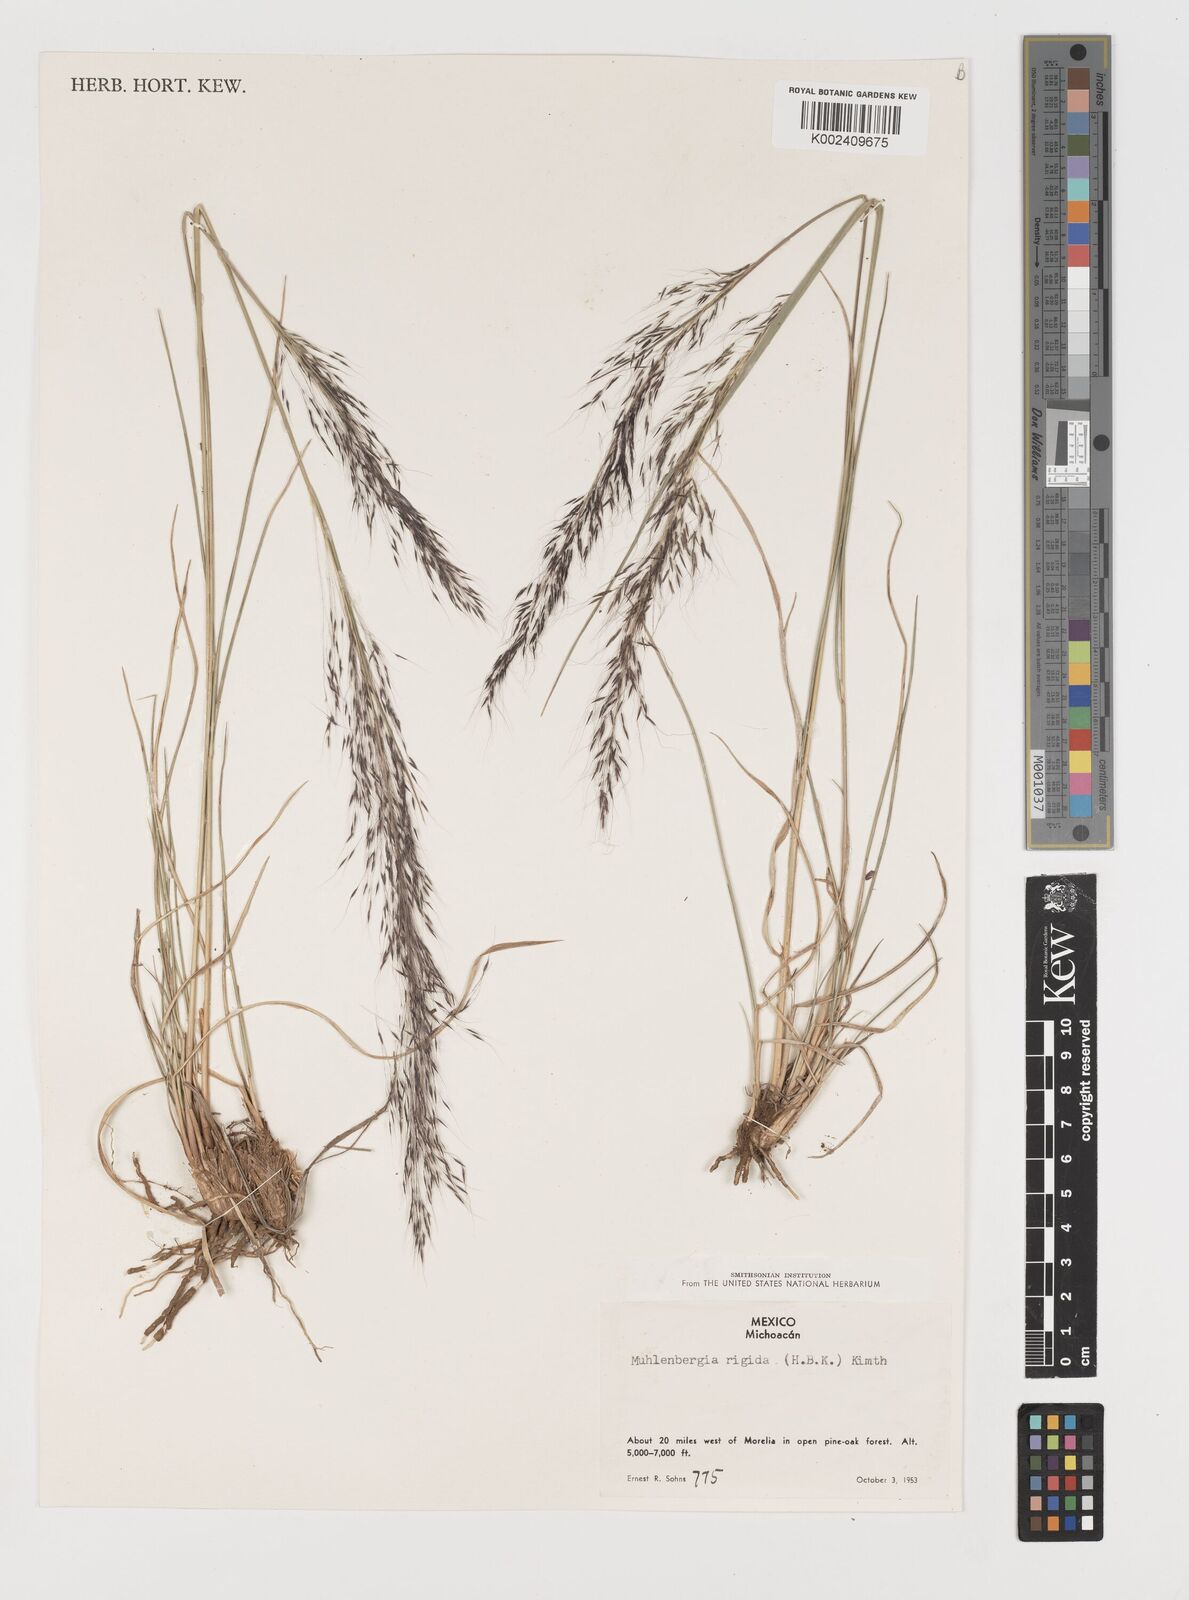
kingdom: Plantae
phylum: Tracheophyta
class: Liliopsida
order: Poales
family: Poaceae
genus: Muhlenbergia
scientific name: Muhlenbergia rigida
